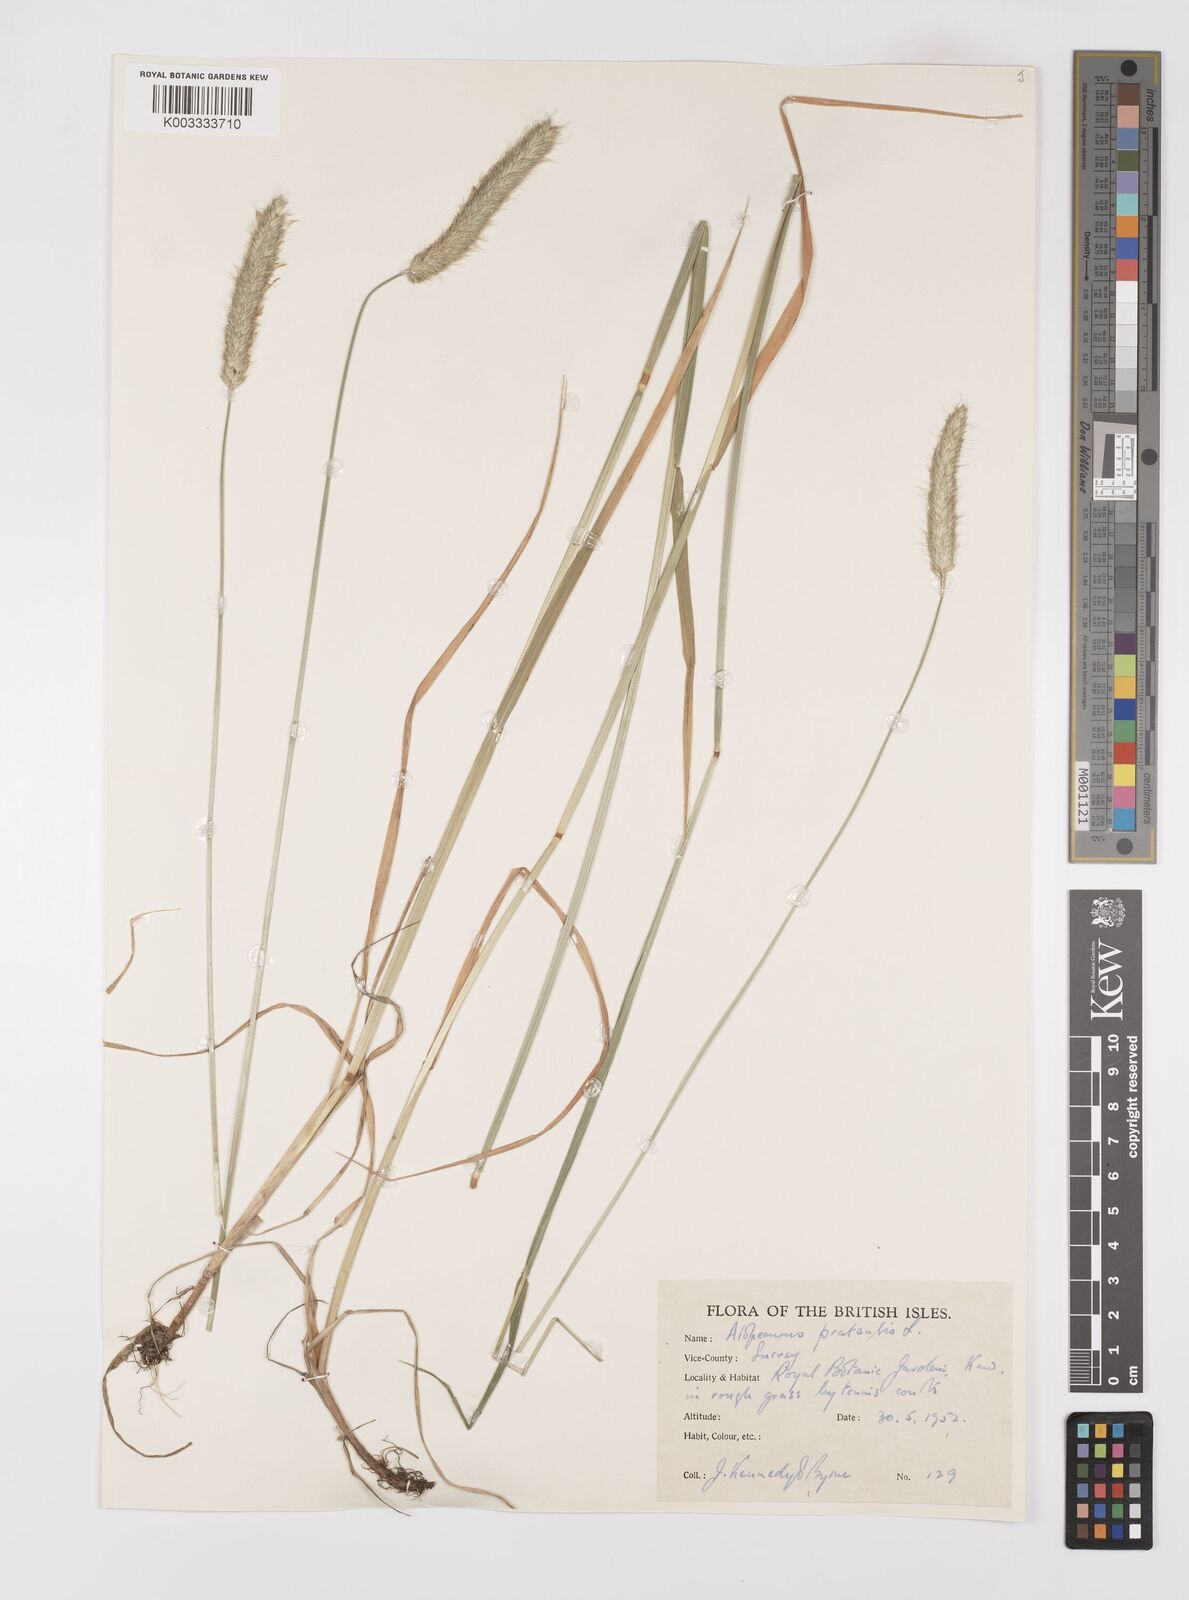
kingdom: Plantae
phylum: Tracheophyta
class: Liliopsida
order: Poales
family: Poaceae
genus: Alopecurus
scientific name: Alopecurus pratensis
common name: Meadow foxtail
